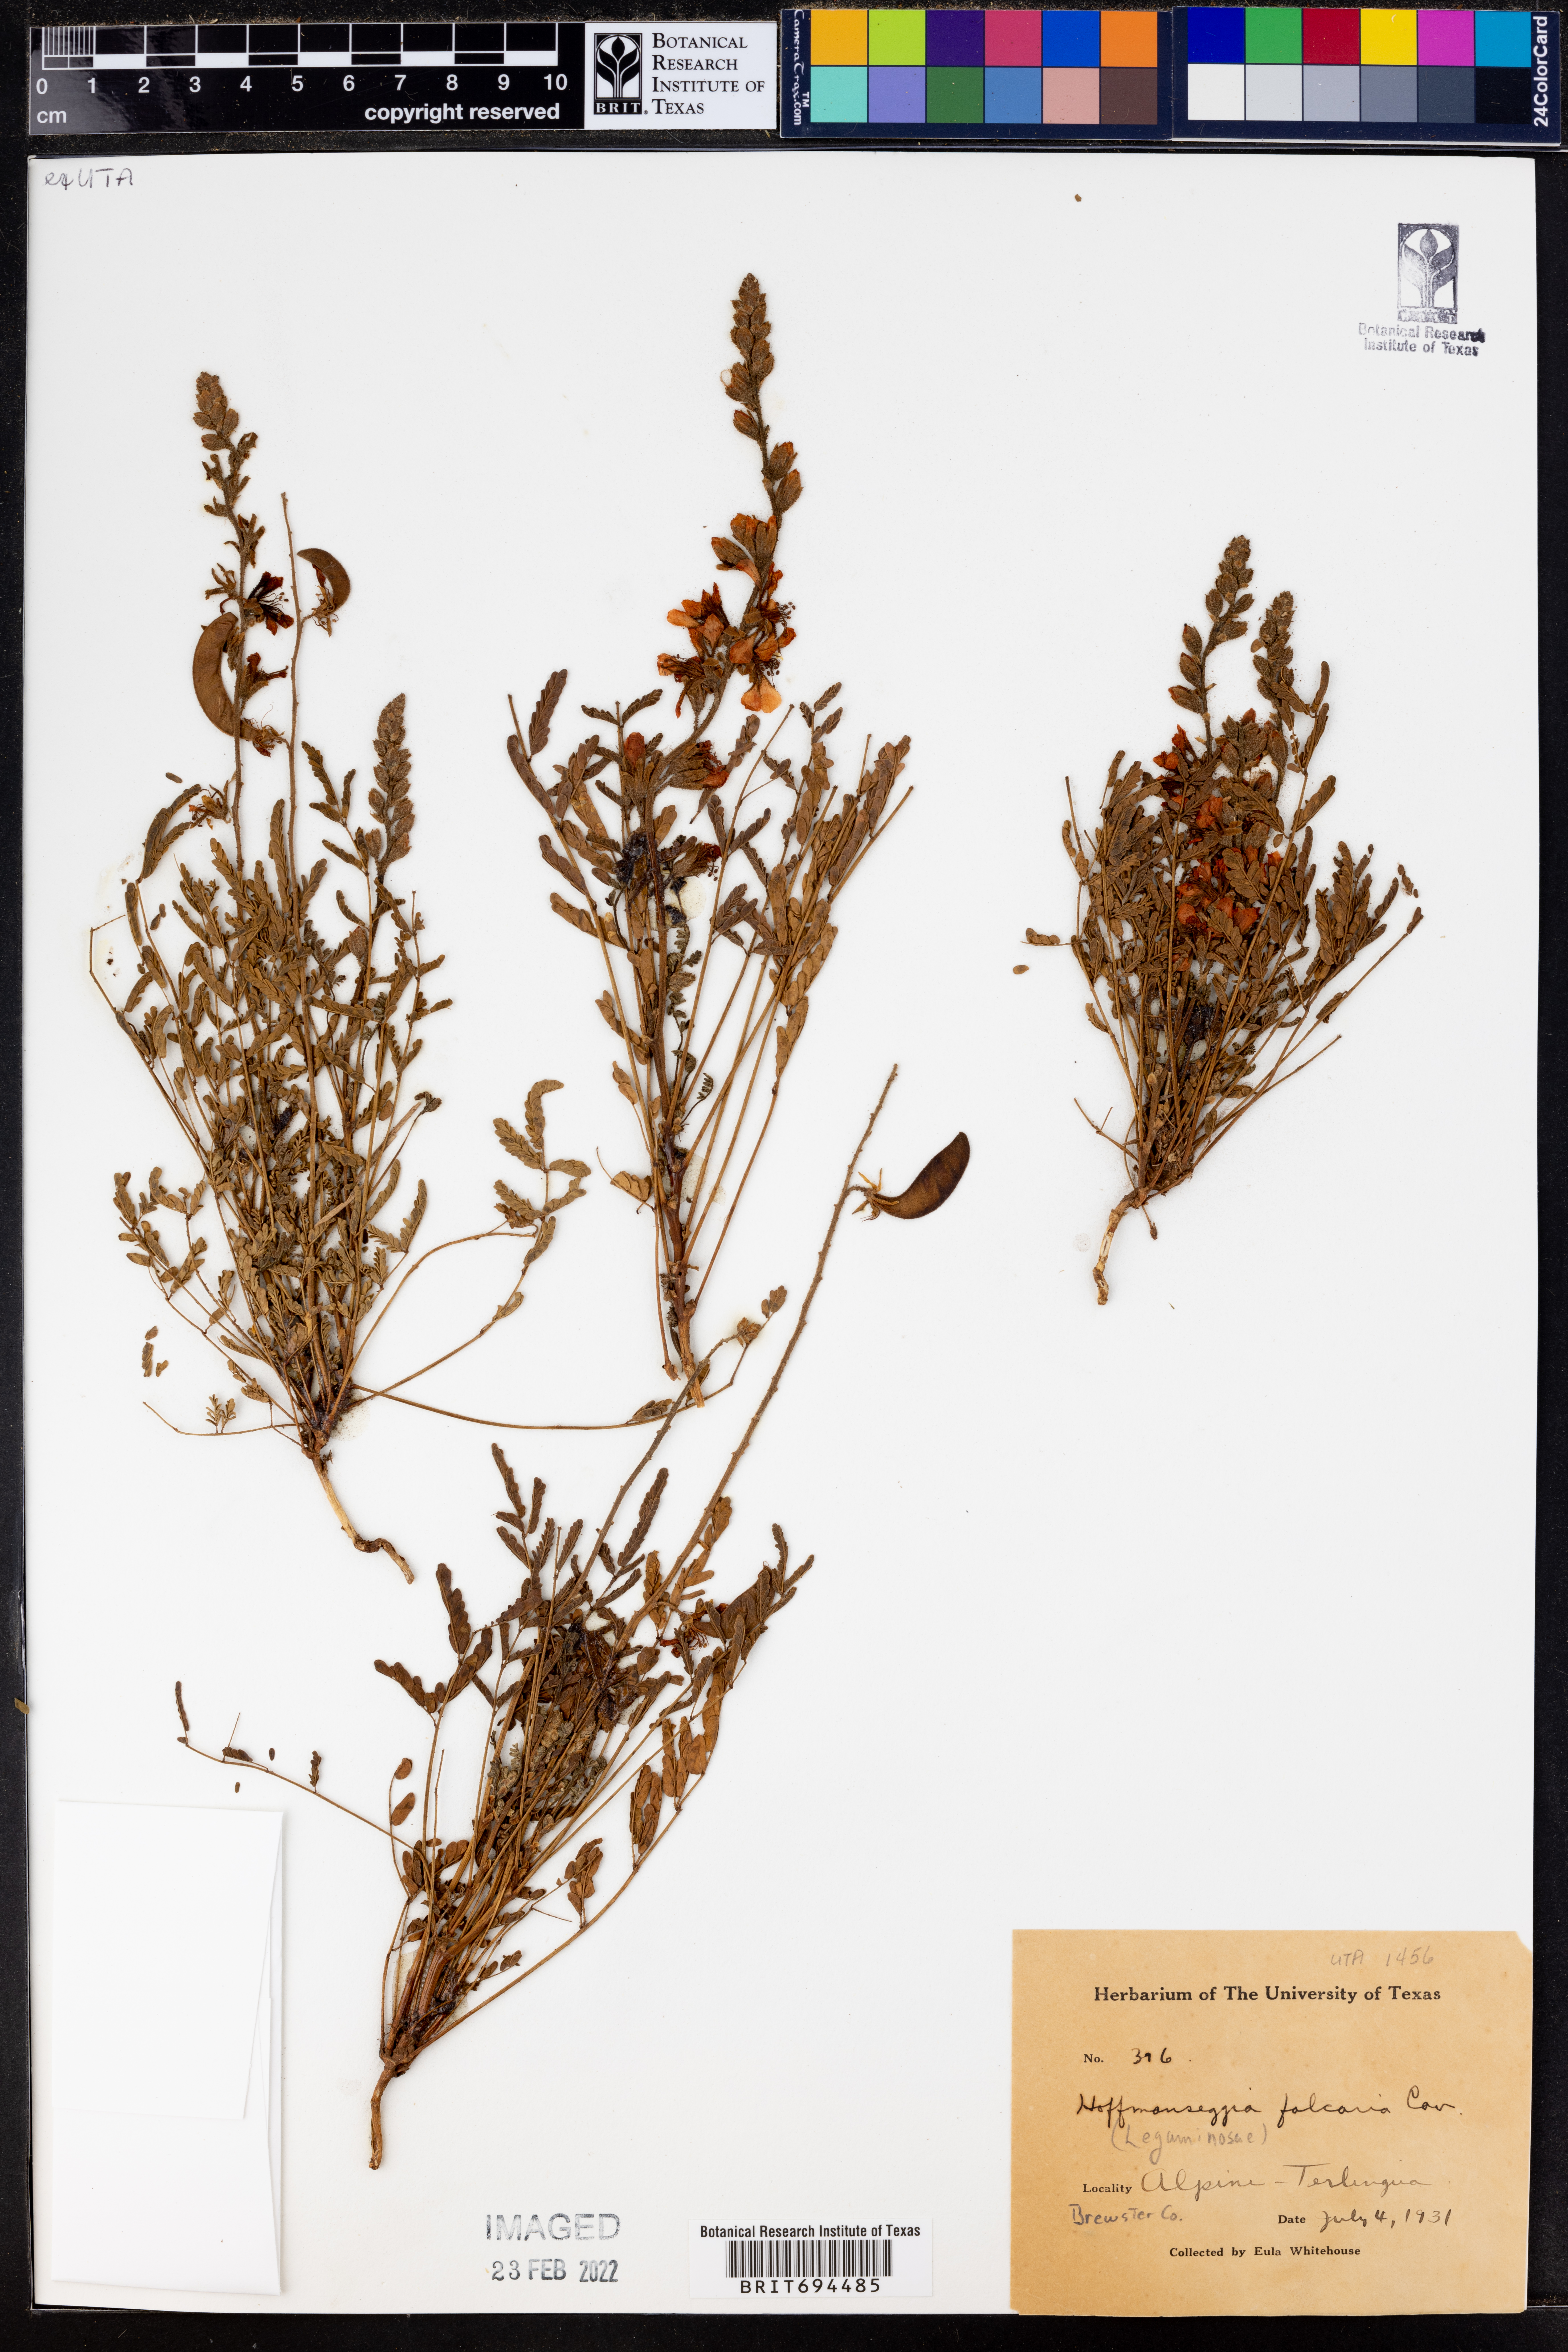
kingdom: Plantae
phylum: Tracheophyta
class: Magnoliopsida
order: Fabales
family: Fabaceae
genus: Hoffmannseggia
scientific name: Hoffmannseggia glauca
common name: Pignut
